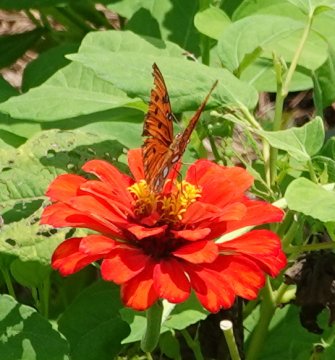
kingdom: Animalia
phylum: Arthropoda
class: Insecta
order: Lepidoptera
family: Nymphalidae
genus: Dione
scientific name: Dione vanillae
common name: Gulf Fritillary
